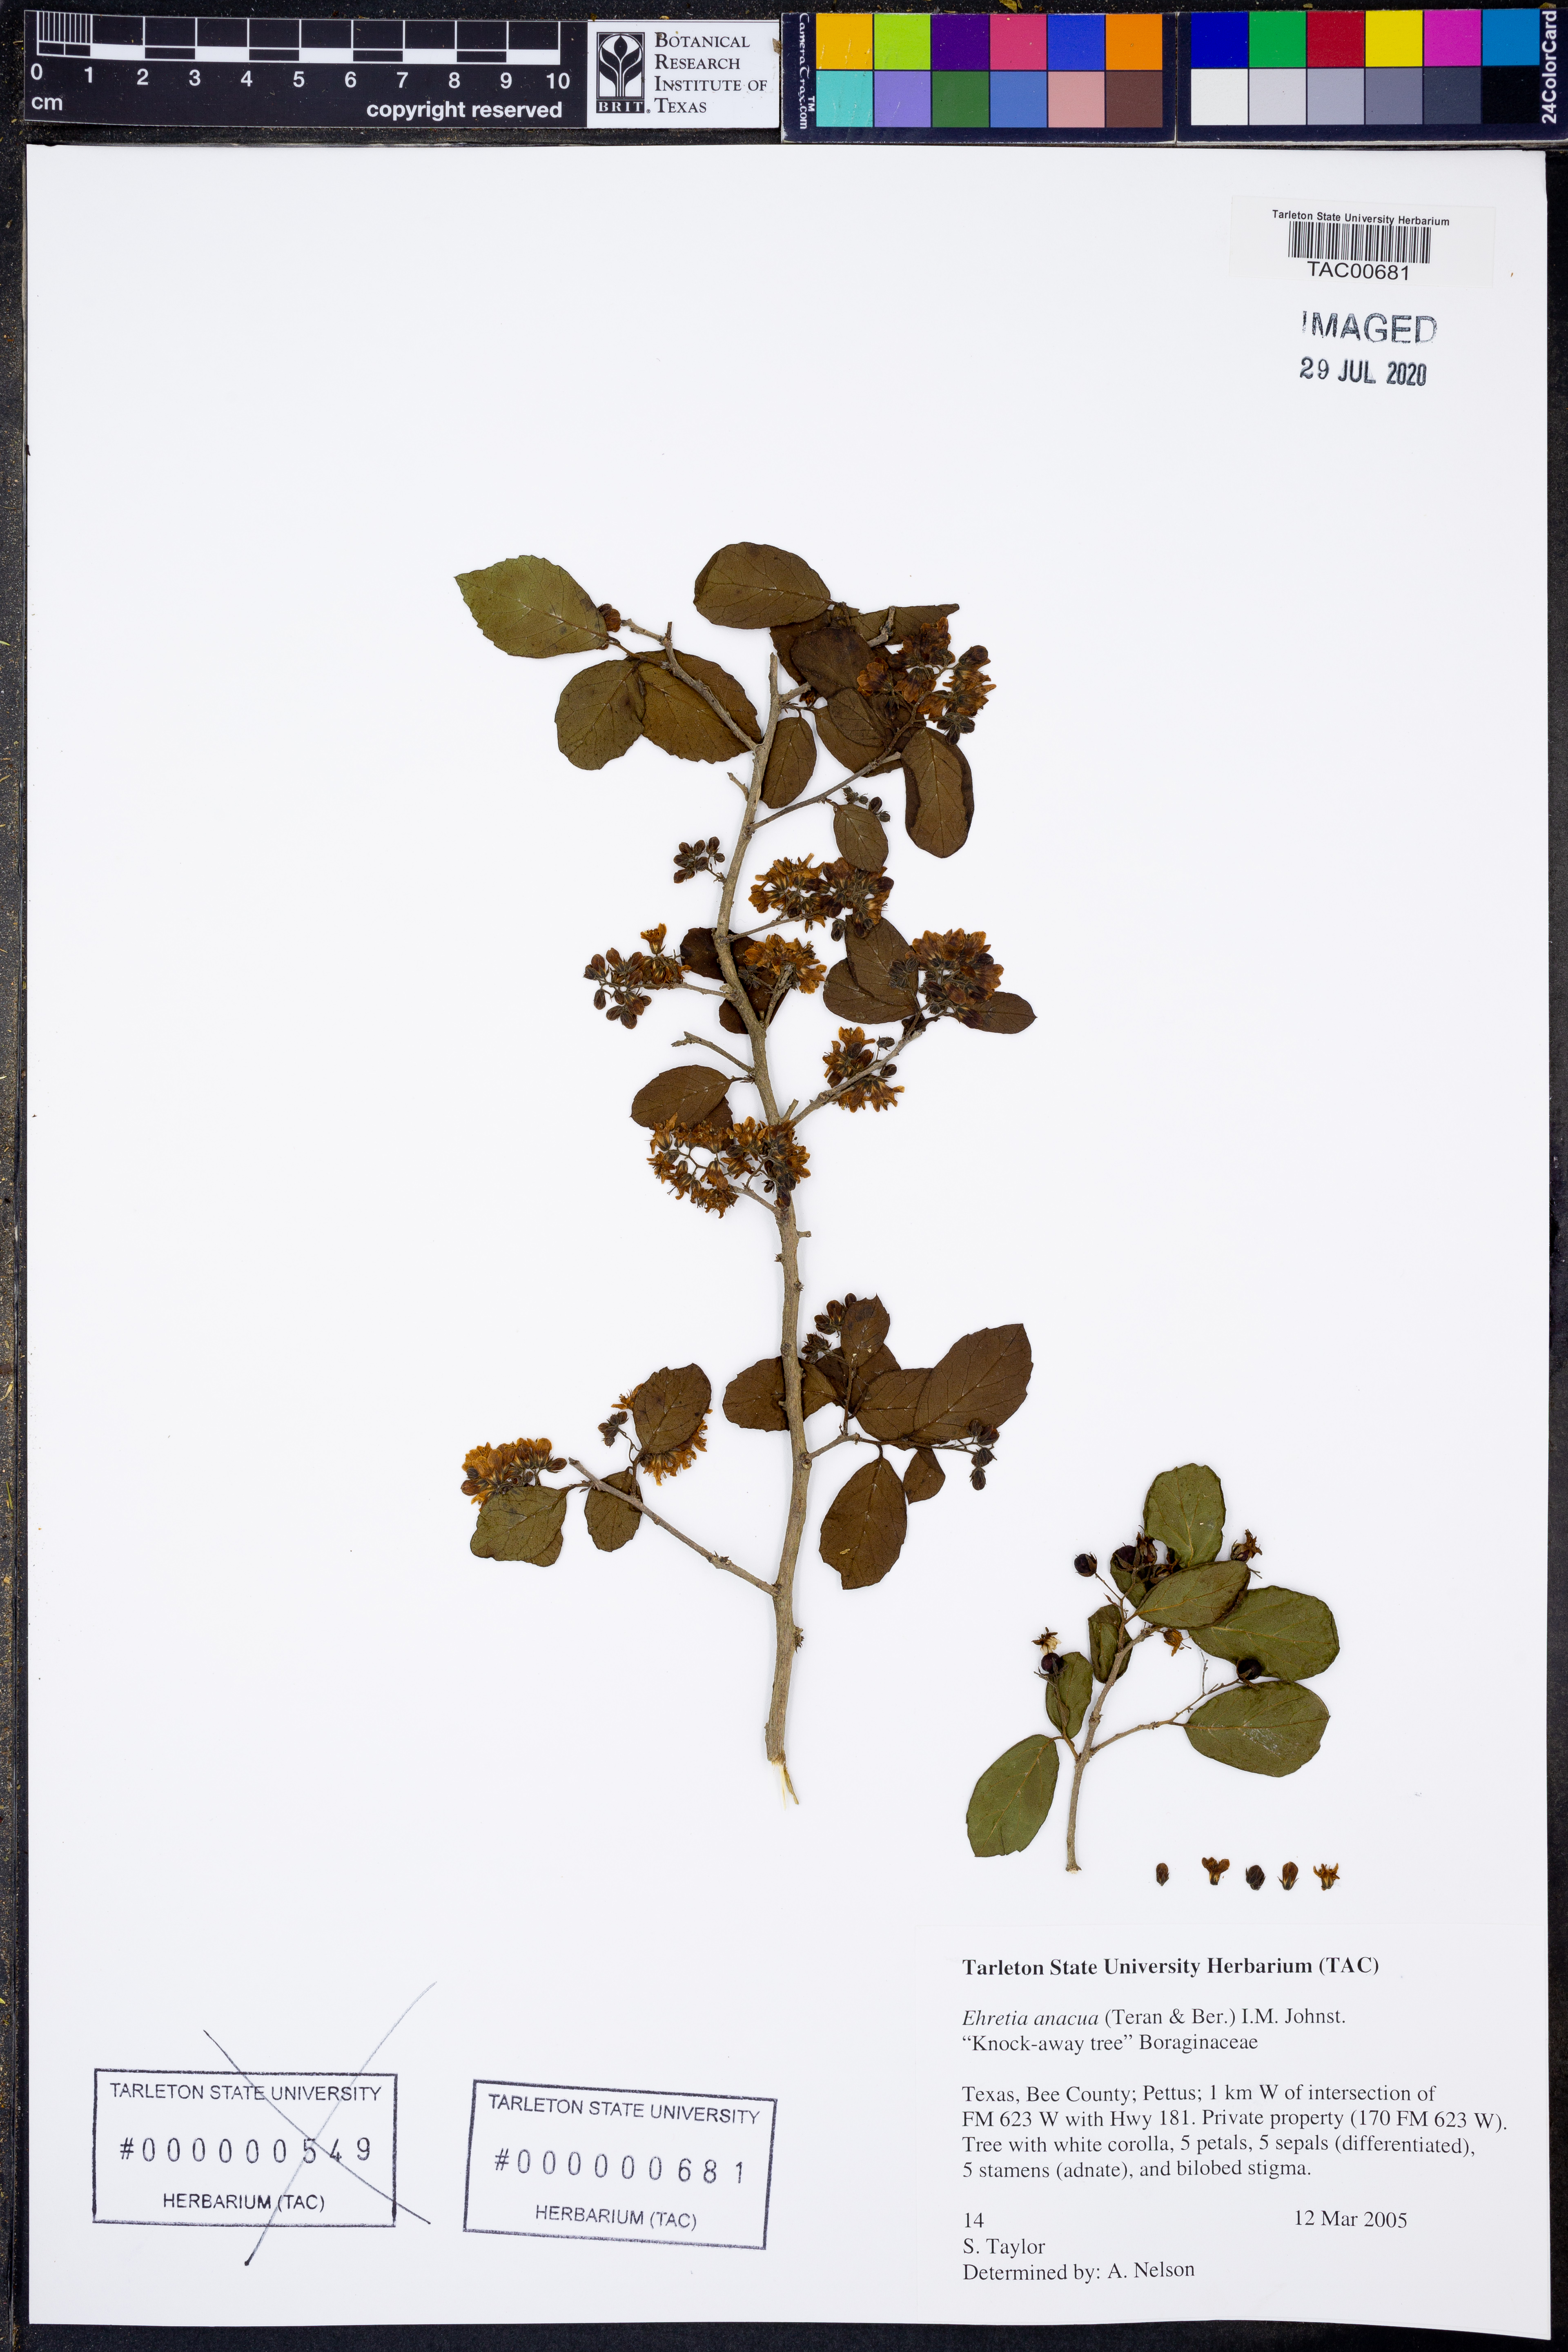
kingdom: Plantae
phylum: Tracheophyta
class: Magnoliopsida
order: Boraginales
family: Ehretiaceae
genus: Ehretia
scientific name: Ehretia anacua
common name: Sugarberry
